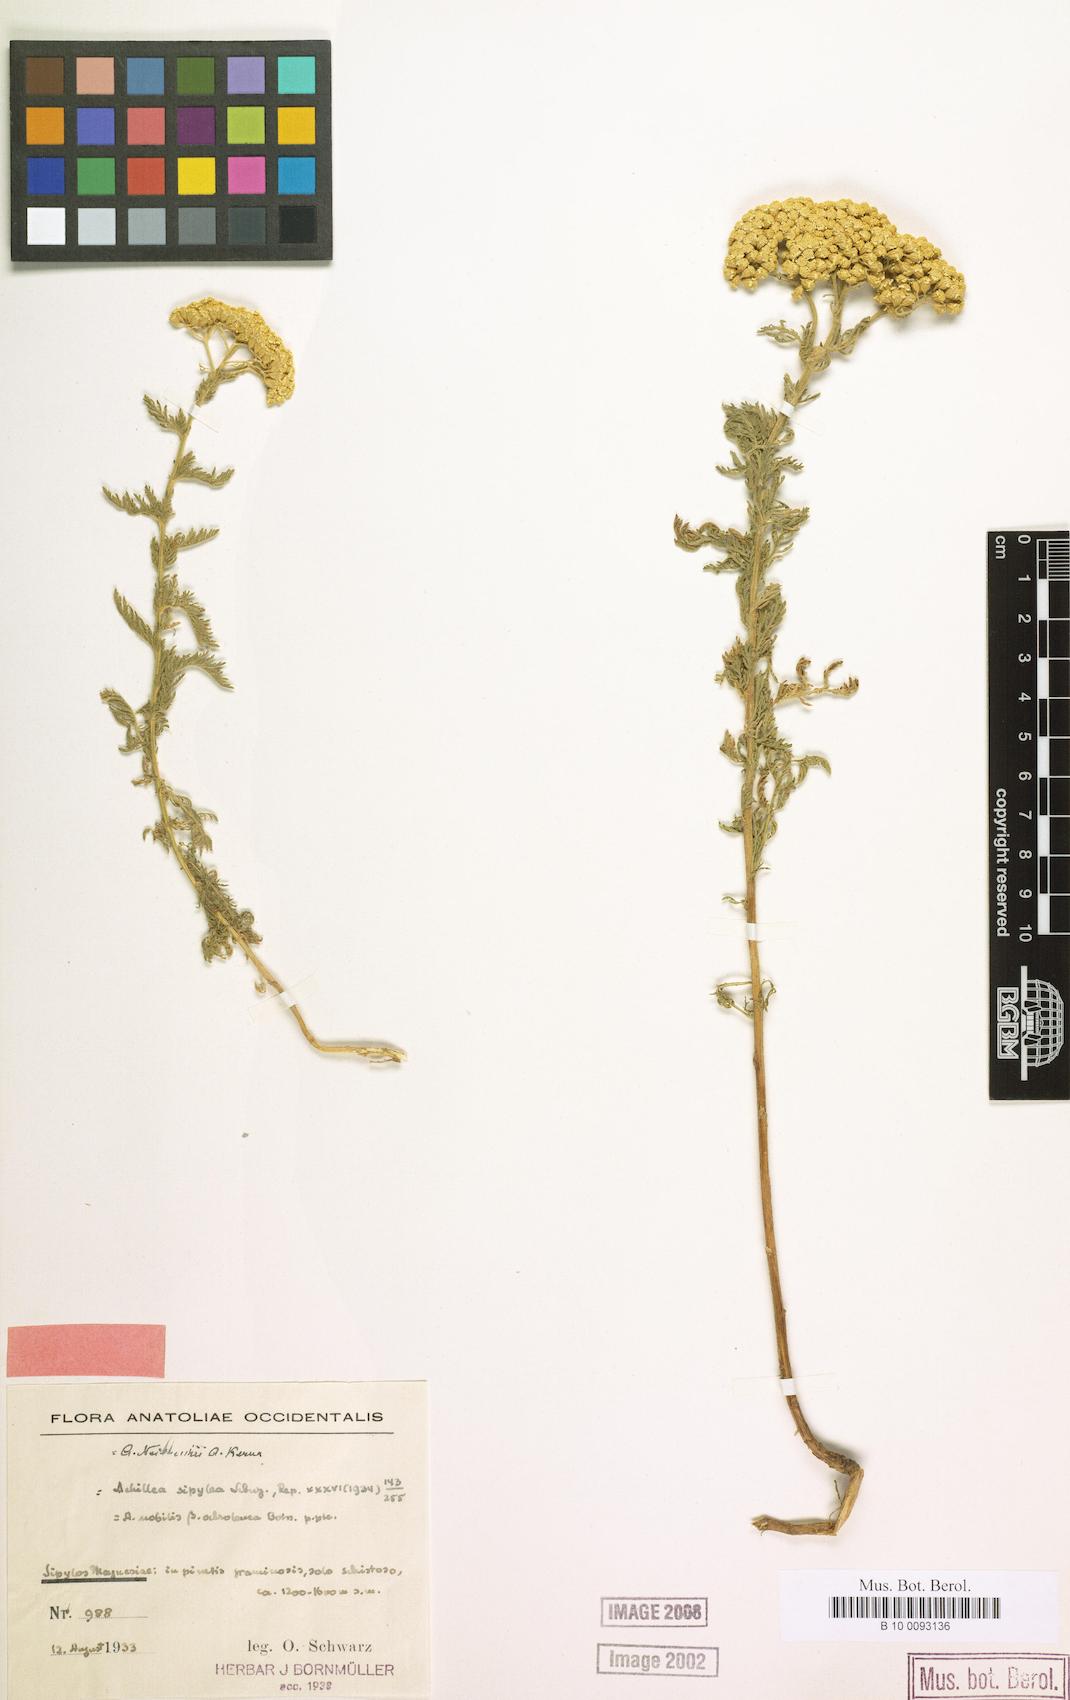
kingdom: Plantae
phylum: Tracheophyta
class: Magnoliopsida
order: Asterales
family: Asteraceae
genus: Achillea
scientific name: Achillea nobilis
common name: Noble yarrow
